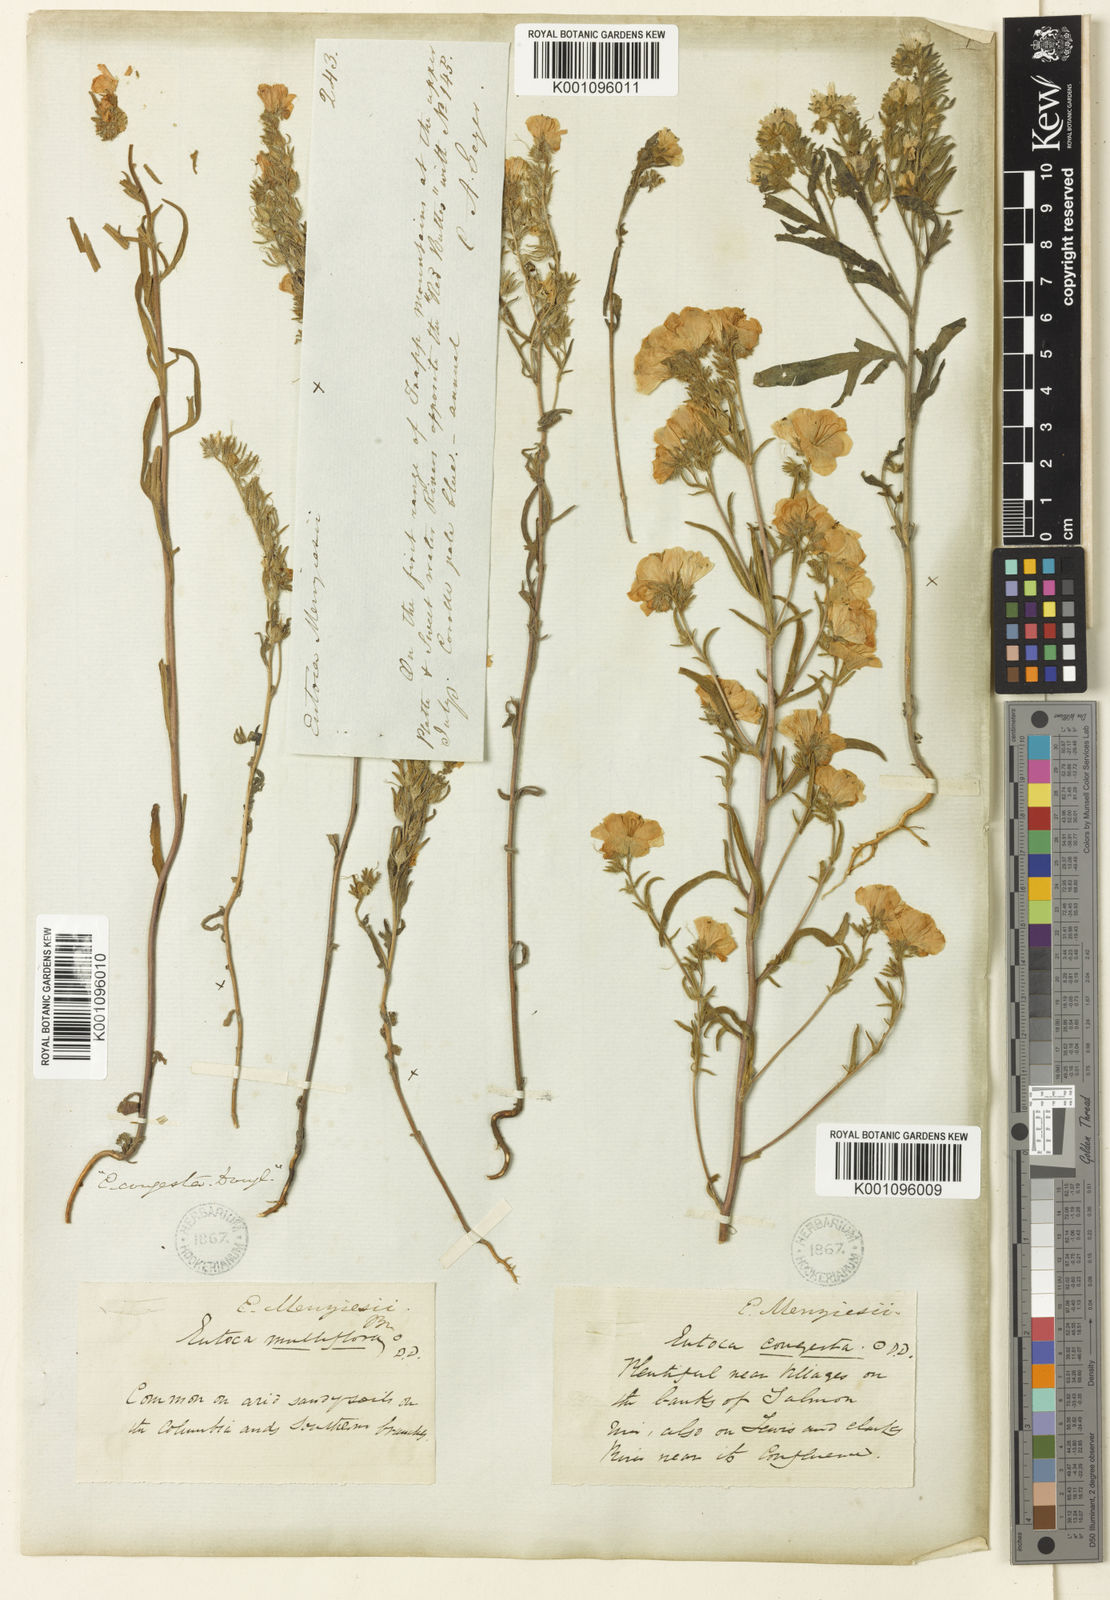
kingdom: Plantae
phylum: Tracheophyta
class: Magnoliopsida
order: Boraginales
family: Hydrophyllaceae
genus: Phacelia
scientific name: Phacelia linearis
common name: Linear-leaved phacelia
